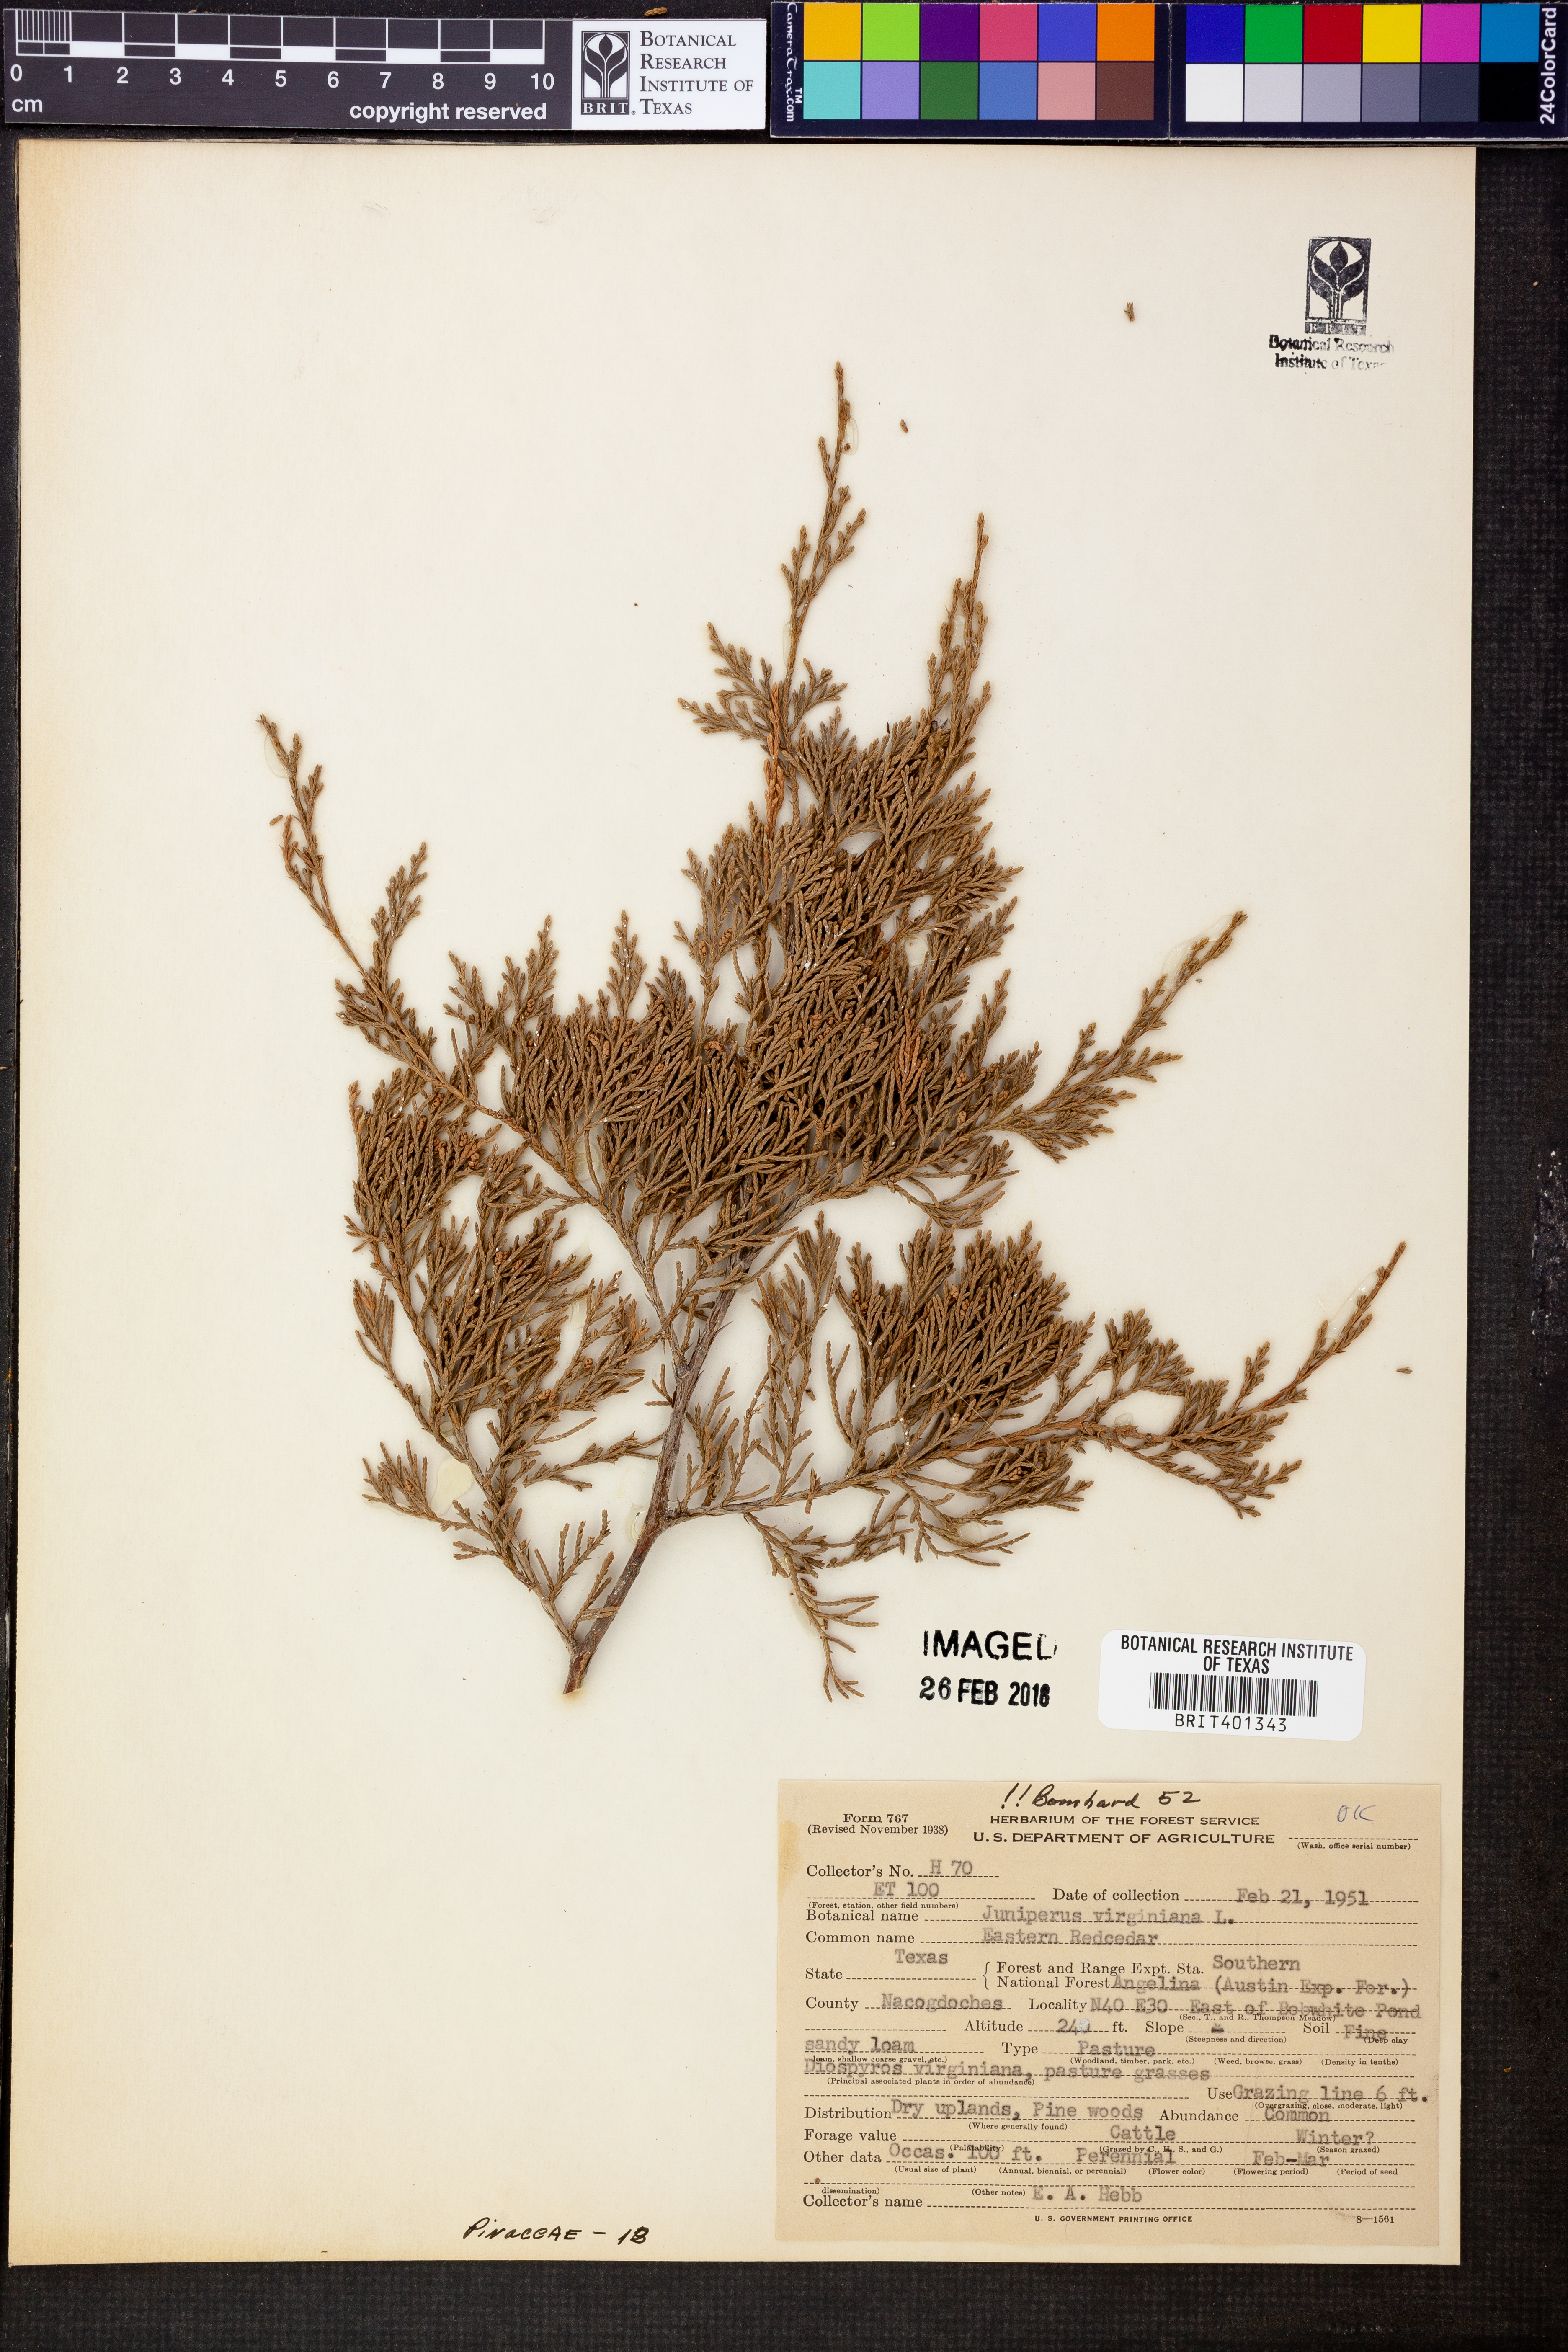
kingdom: Plantae
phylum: Tracheophyta
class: Pinopsida
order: Pinales
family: Cupressaceae
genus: Juniperus
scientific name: Juniperus virginiana
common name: Red juniper
